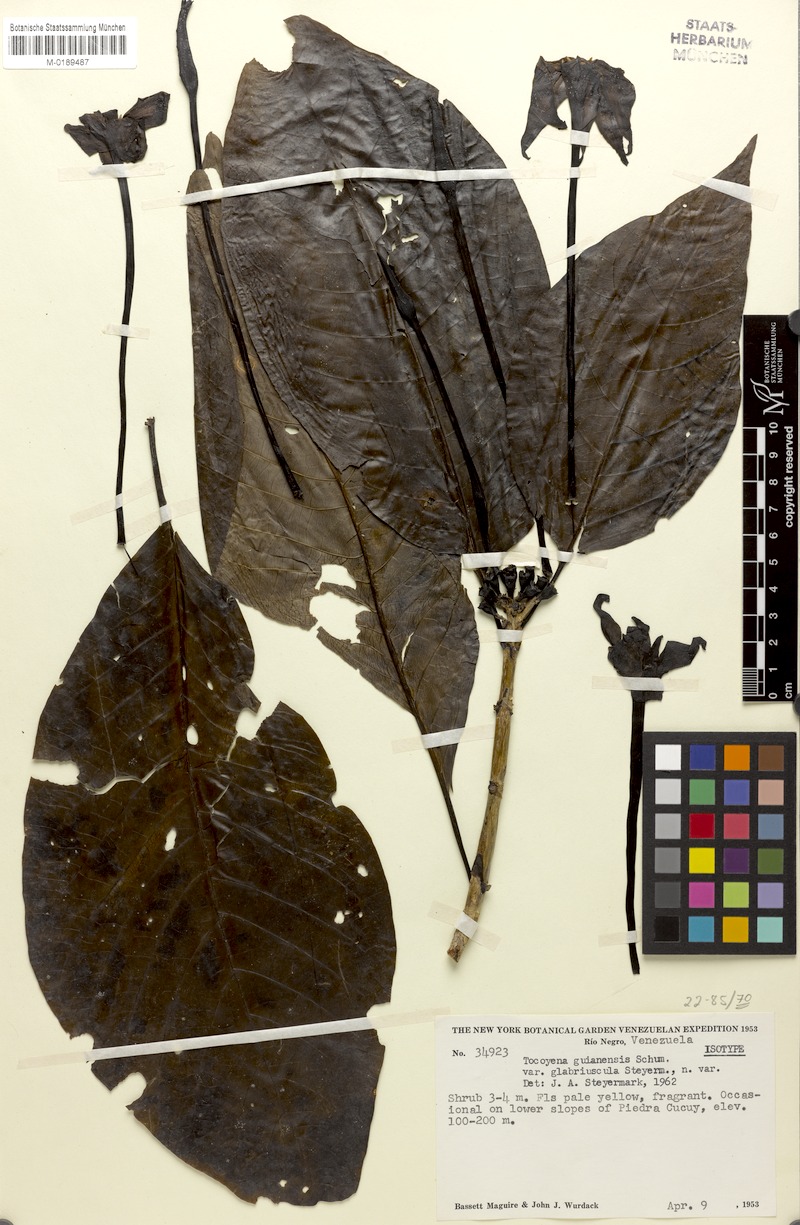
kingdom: Plantae
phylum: Tracheophyta
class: Magnoliopsida
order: Gentianales
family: Rubiaceae
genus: Tocoyena
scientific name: Tocoyena guianensis
